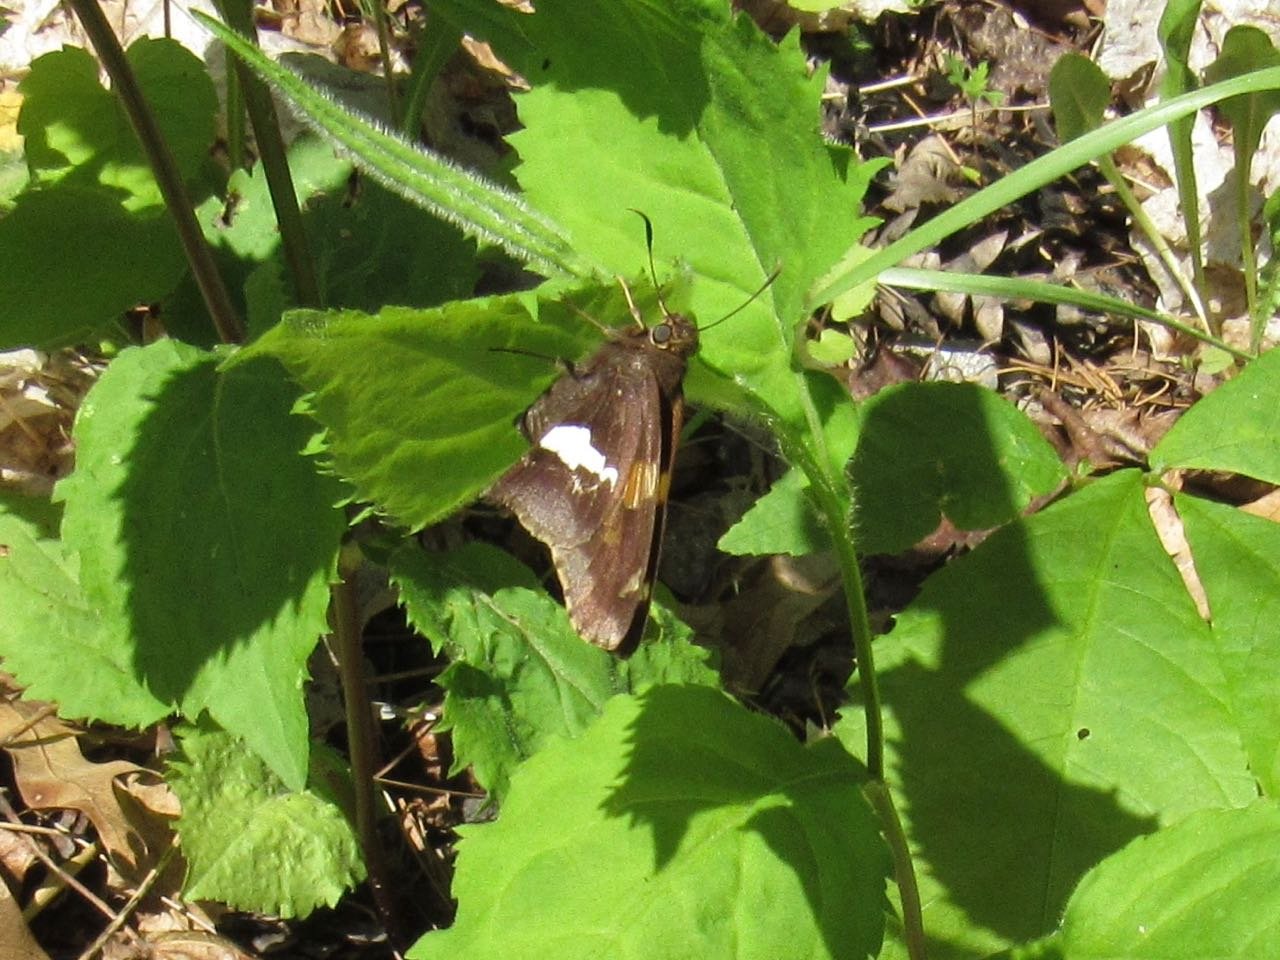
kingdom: Animalia
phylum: Arthropoda
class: Insecta
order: Lepidoptera
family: Hesperiidae
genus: Epargyreus
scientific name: Epargyreus clarus
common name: Silver-spotted Skipper
